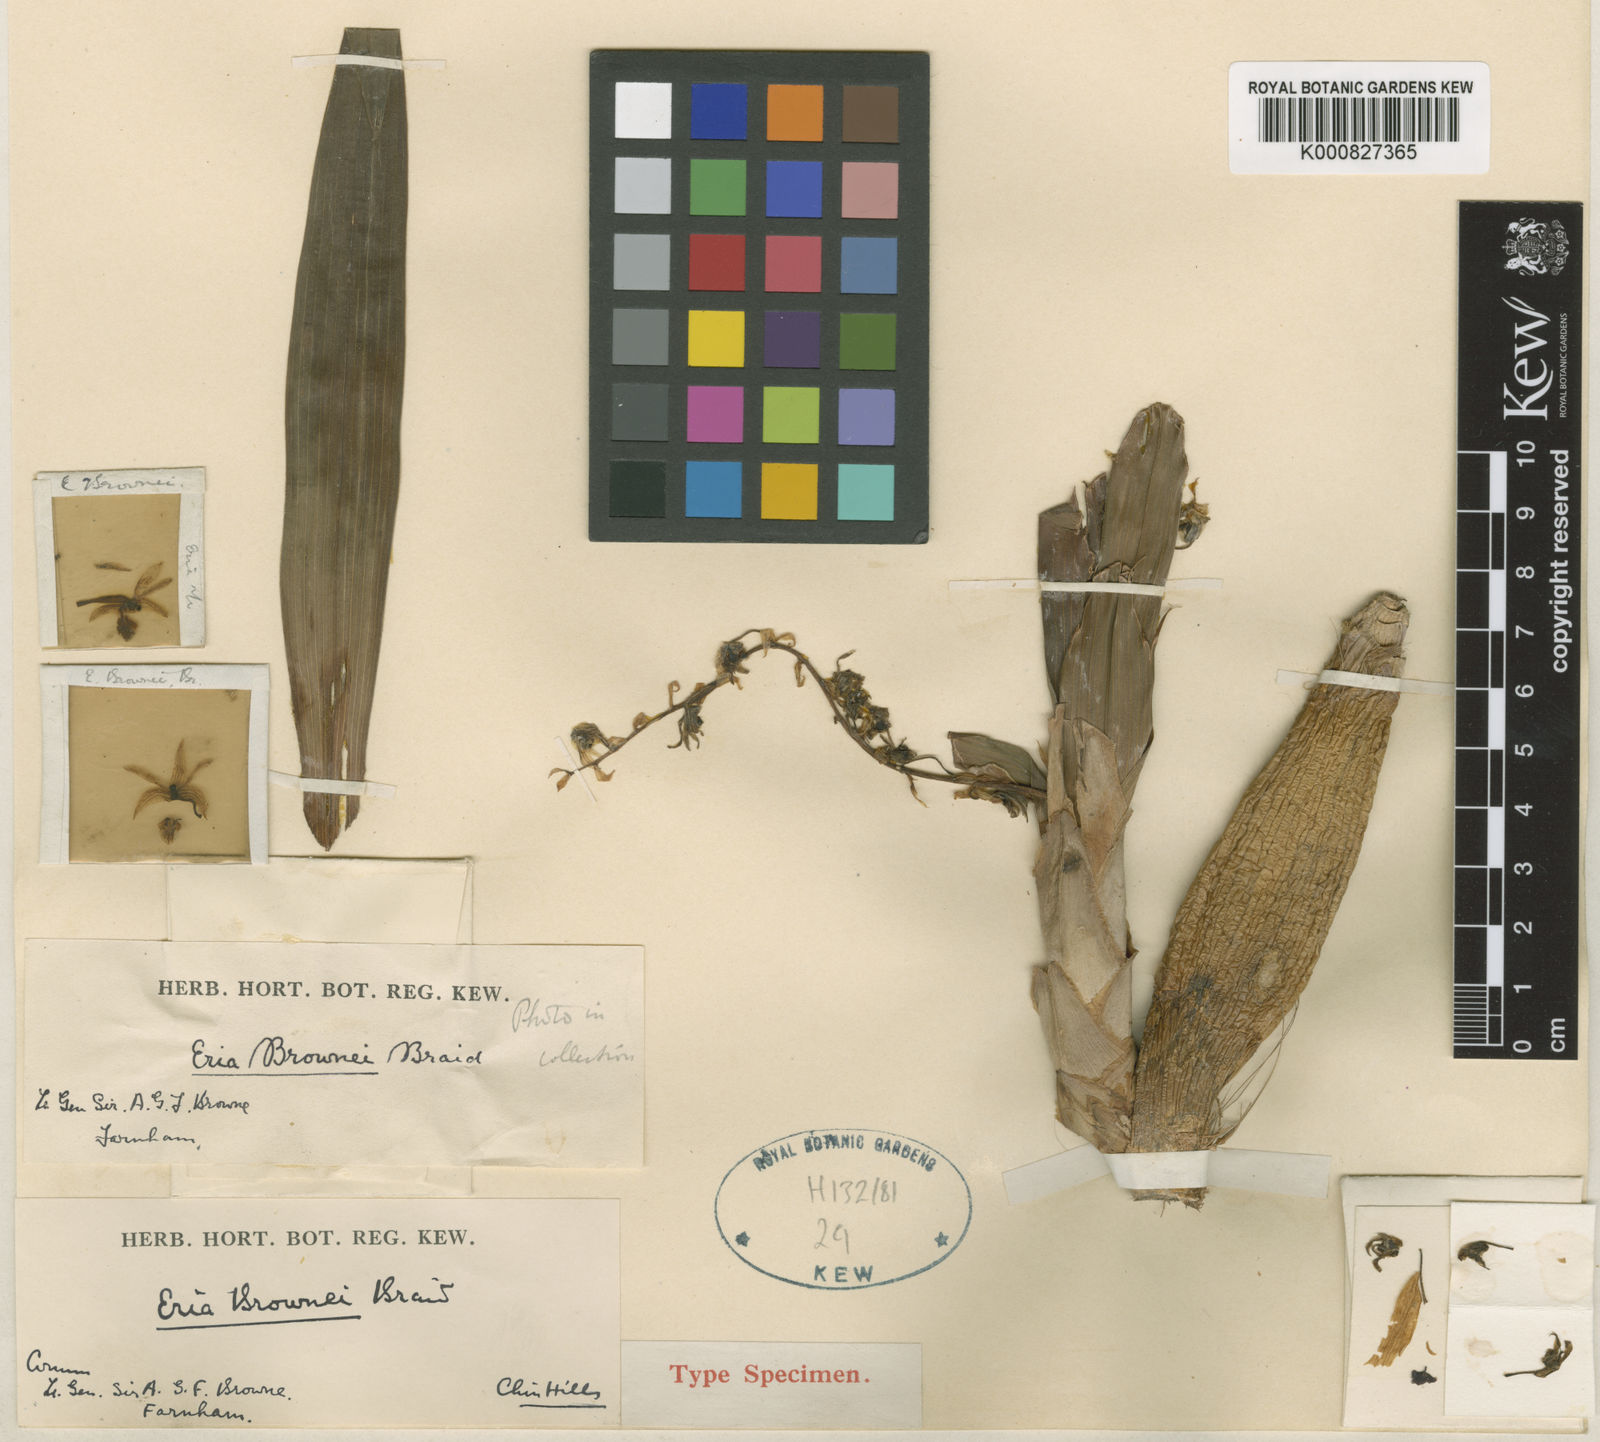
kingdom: Plantae
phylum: Tracheophyta
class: Liliopsida
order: Asparagales
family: Orchidaceae
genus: Pinalia
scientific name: Pinalia brownei
